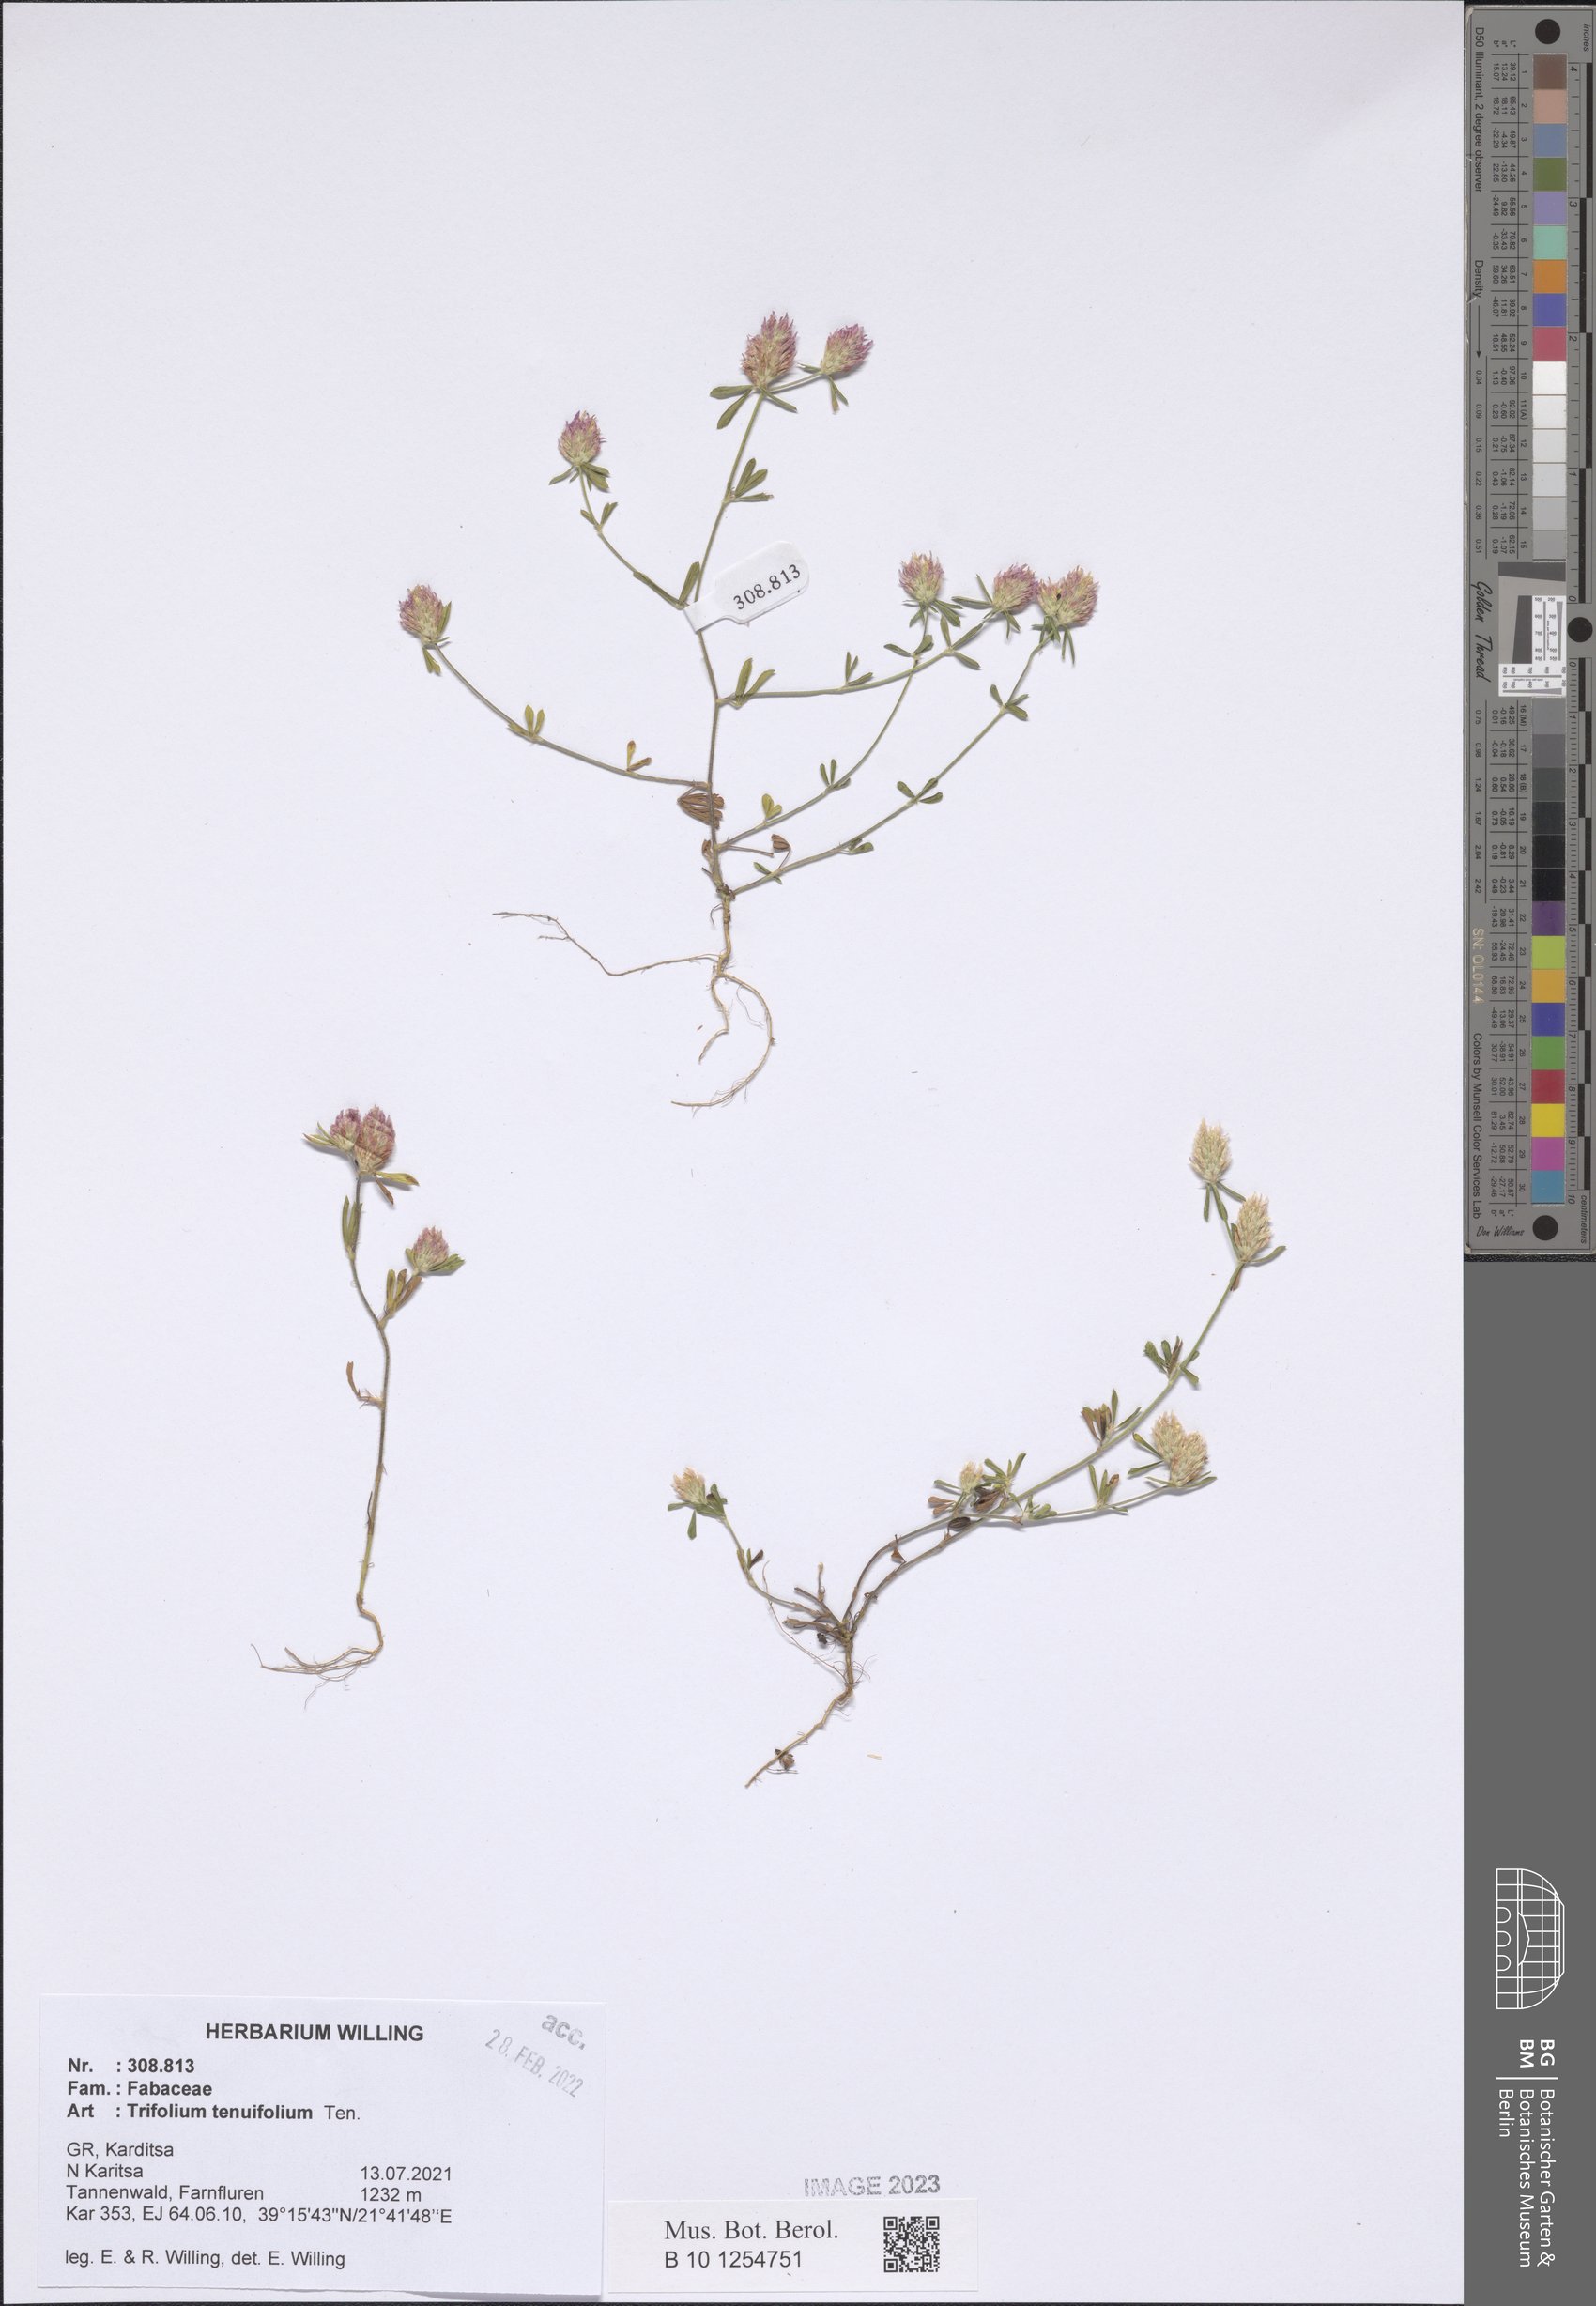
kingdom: Plantae
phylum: Tracheophyta
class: Magnoliopsida
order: Fabales
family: Fabaceae
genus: Trifolium
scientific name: Trifolium tenuifolium
